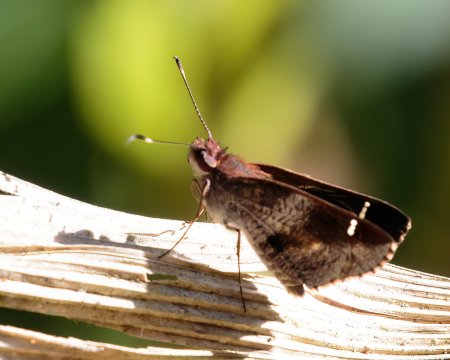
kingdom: Animalia
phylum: Arthropoda
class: Insecta
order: Lepidoptera
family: Hesperiidae
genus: Psoralis
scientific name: Psoralis
